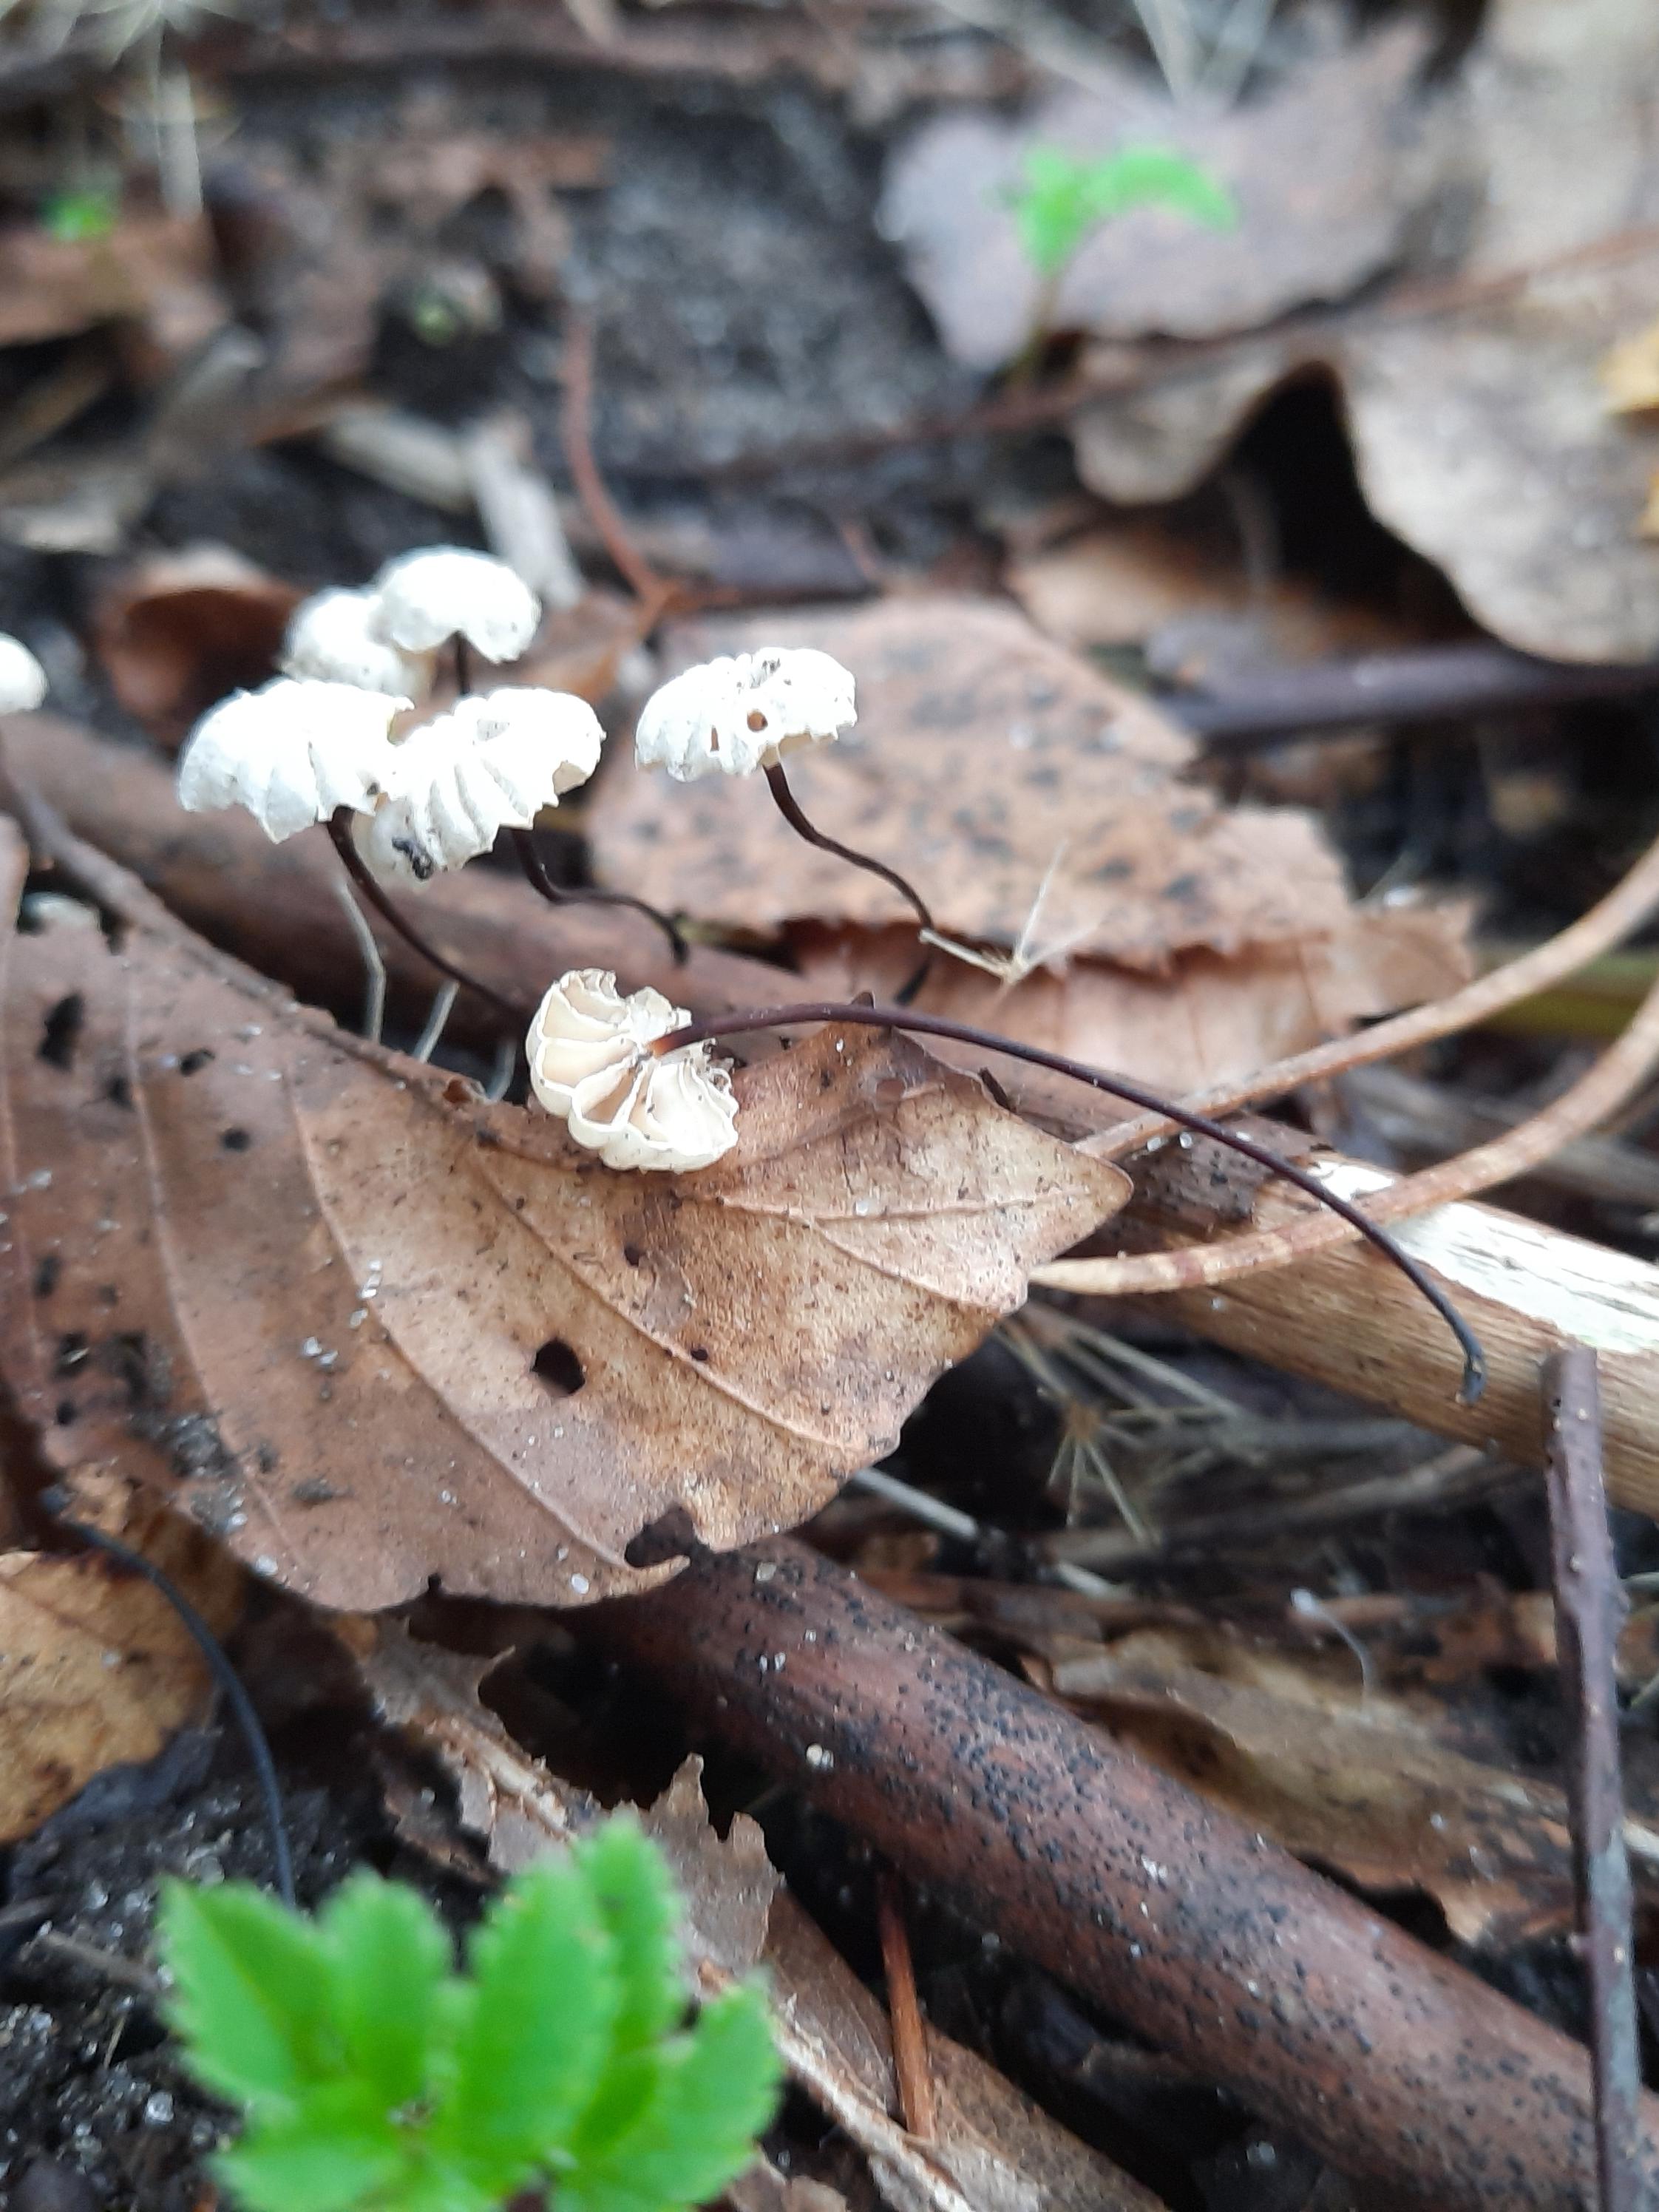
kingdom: Fungi
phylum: Basidiomycota
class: Agaricomycetes
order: Agaricales
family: Marasmiaceae
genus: Marasmius
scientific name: Marasmius rotula
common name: hjul-bruskhat
